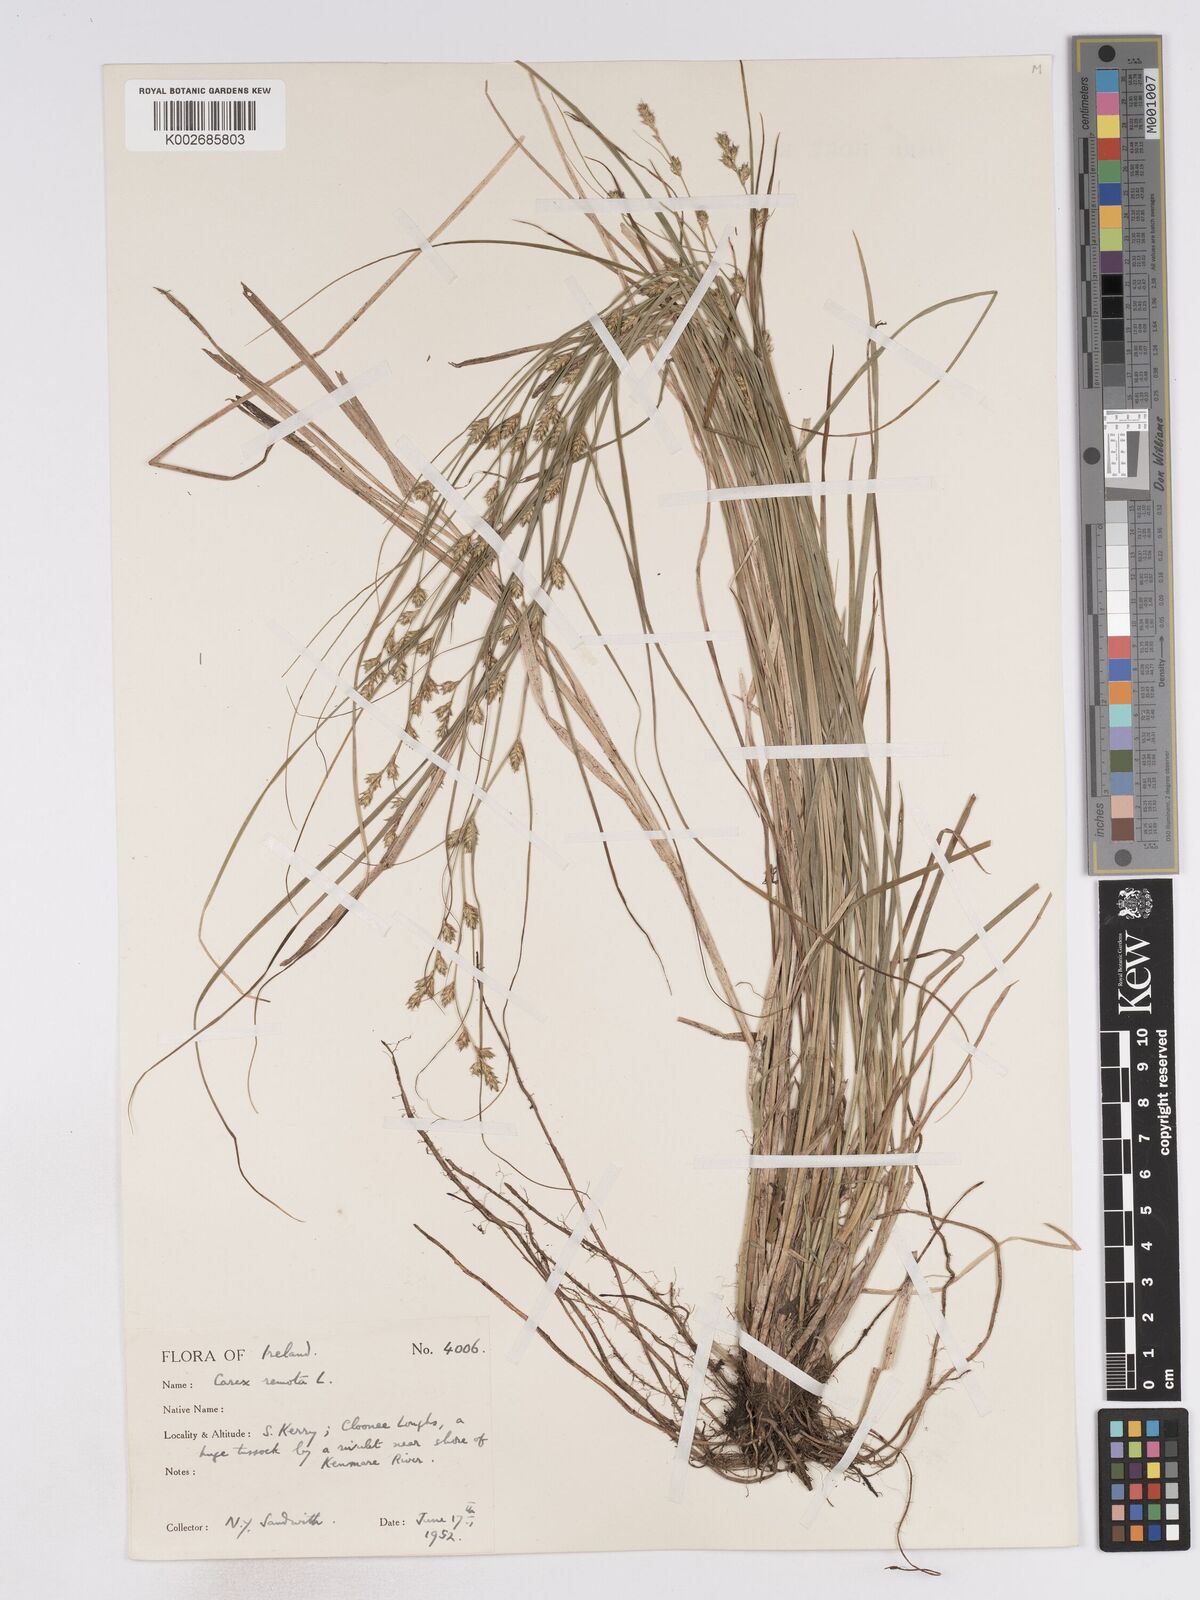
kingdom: Plantae
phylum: Tracheophyta
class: Liliopsida
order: Poales
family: Cyperaceae
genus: Carex
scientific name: Carex remota
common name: Remote sedge
